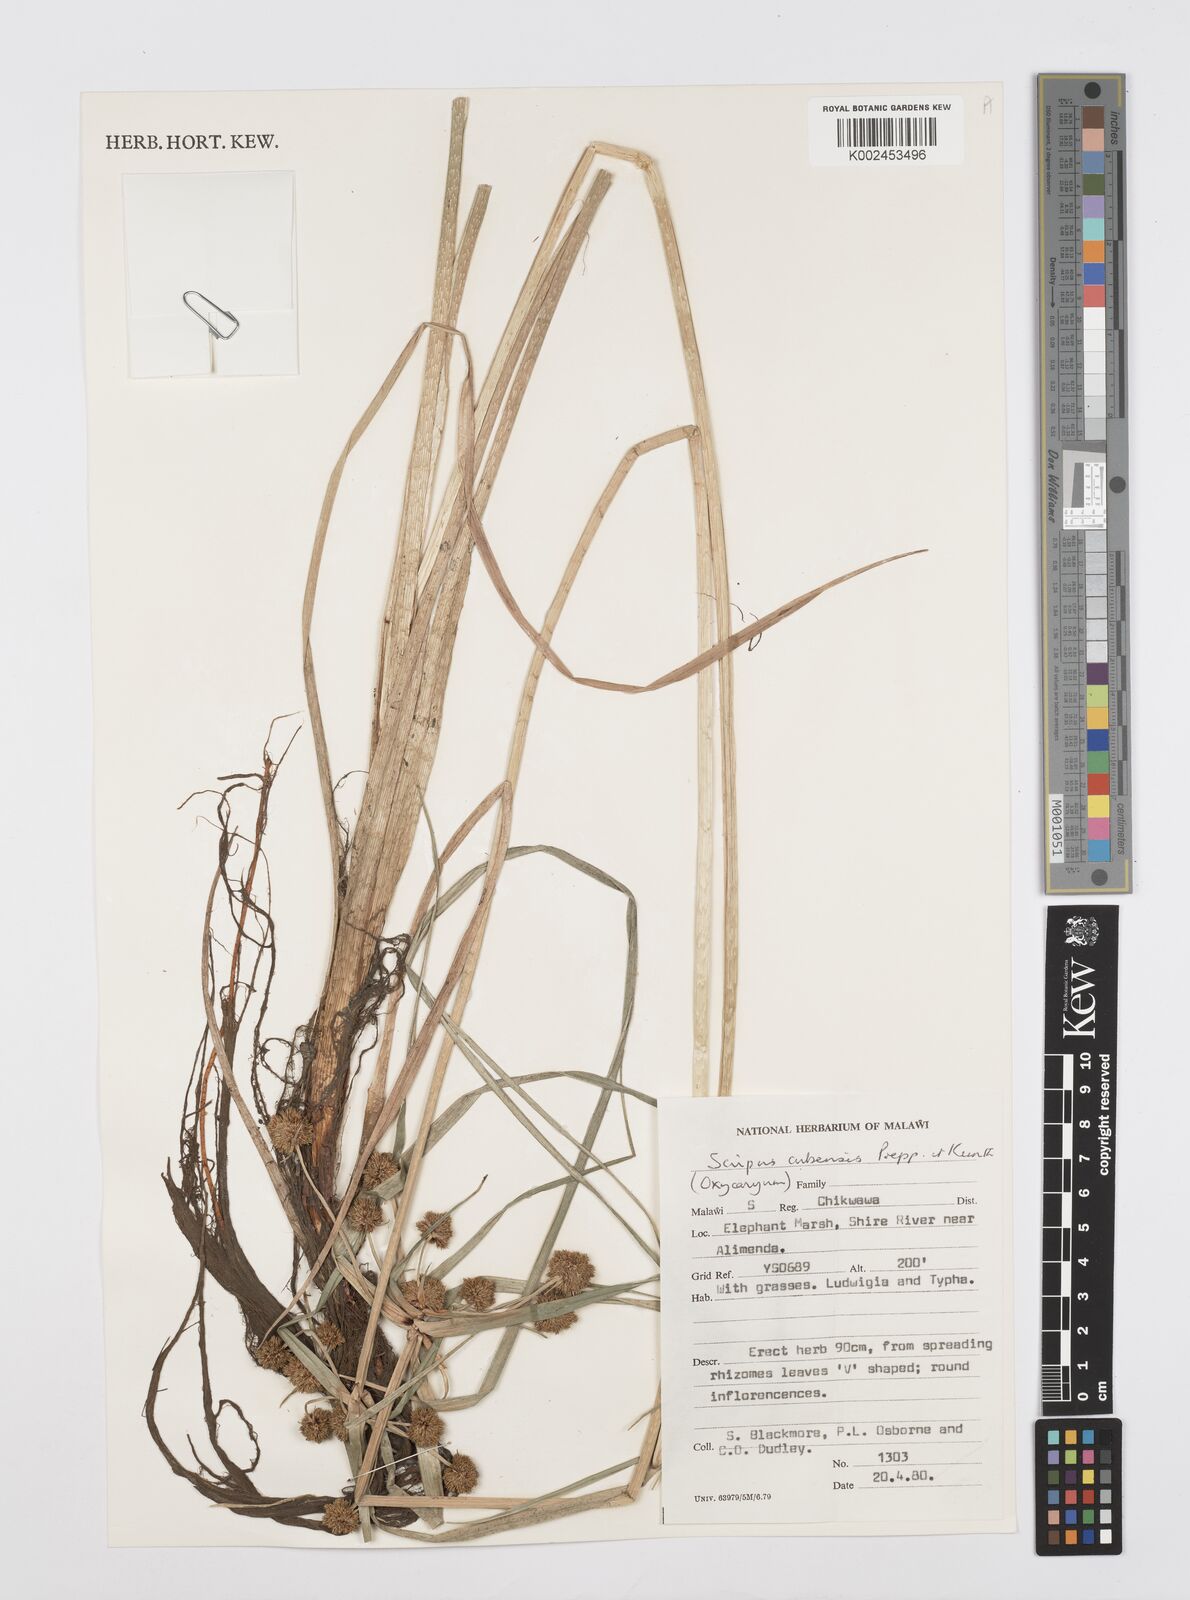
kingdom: Plantae
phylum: Tracheophyta
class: Liliopsida
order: Poales
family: Cyperaceae
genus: Cyperus
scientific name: Cyperus elegans
